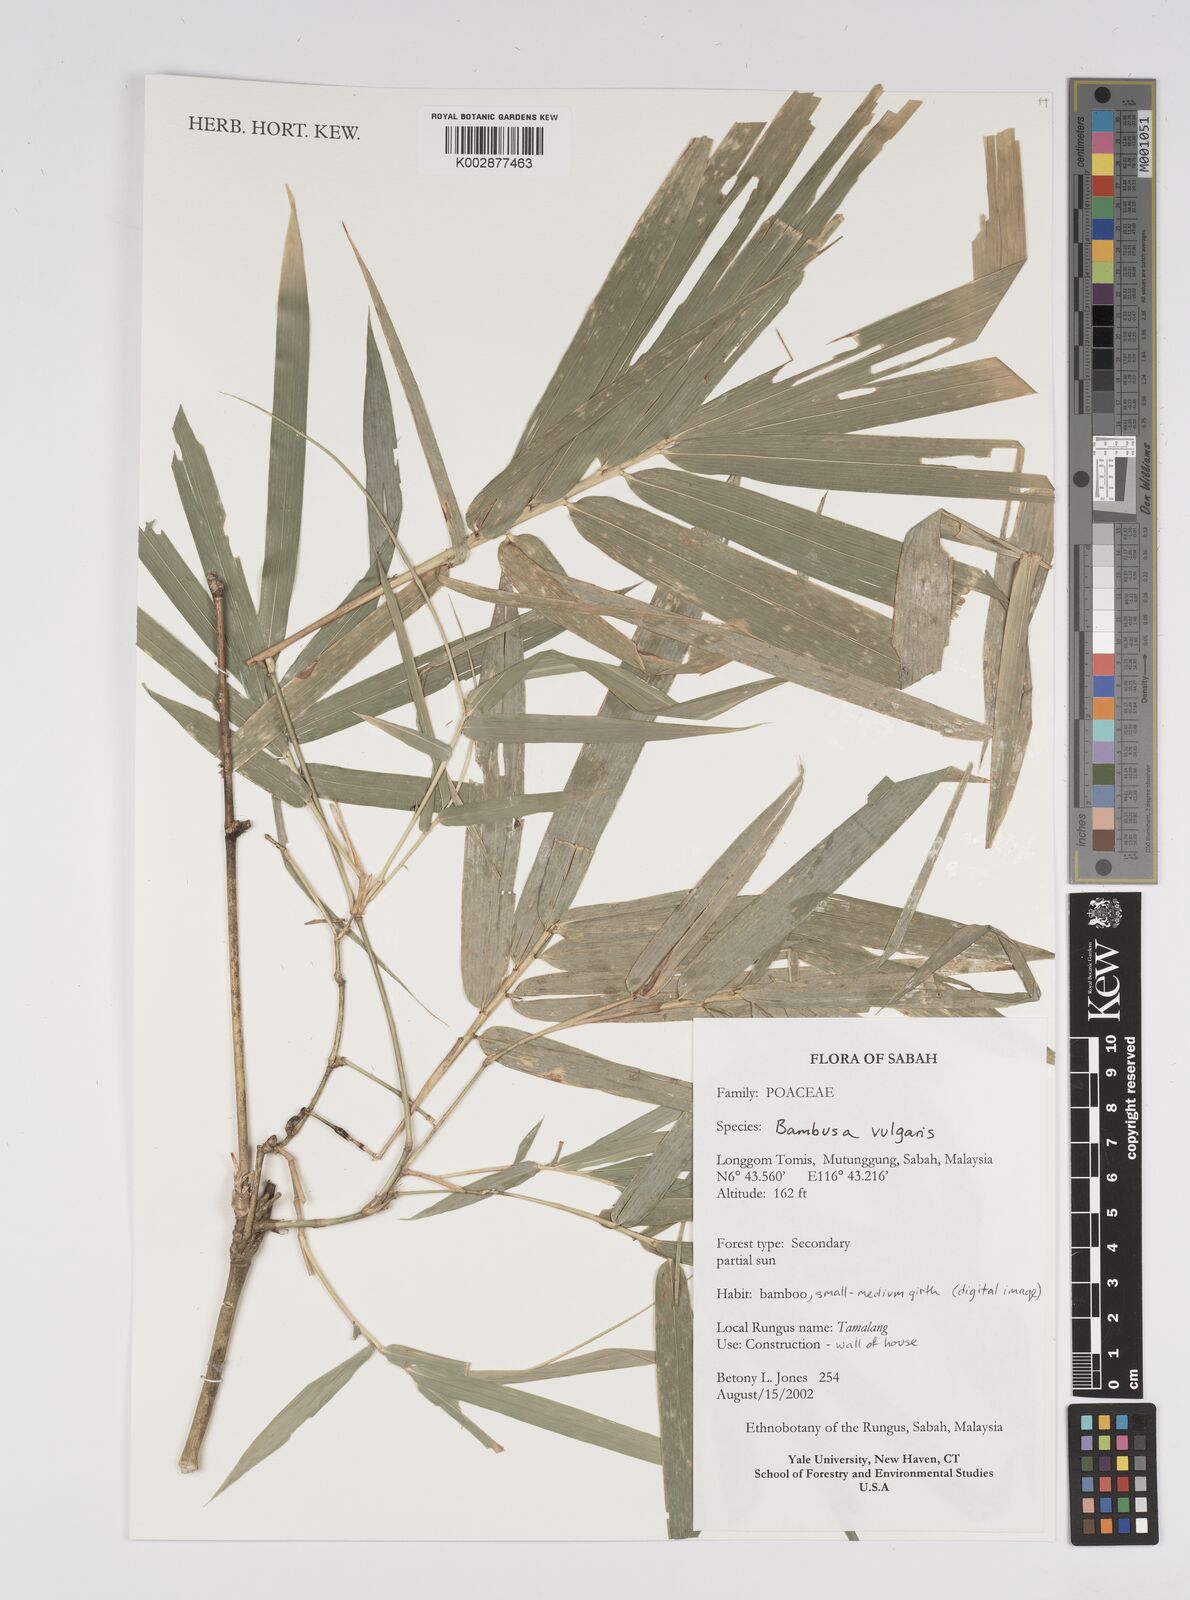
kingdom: Plantae
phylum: Tracheophyta
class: Liliopsida
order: Poales
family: Poaceae
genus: Bambusa
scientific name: Bambusa vulgaris
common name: Common bamboo
